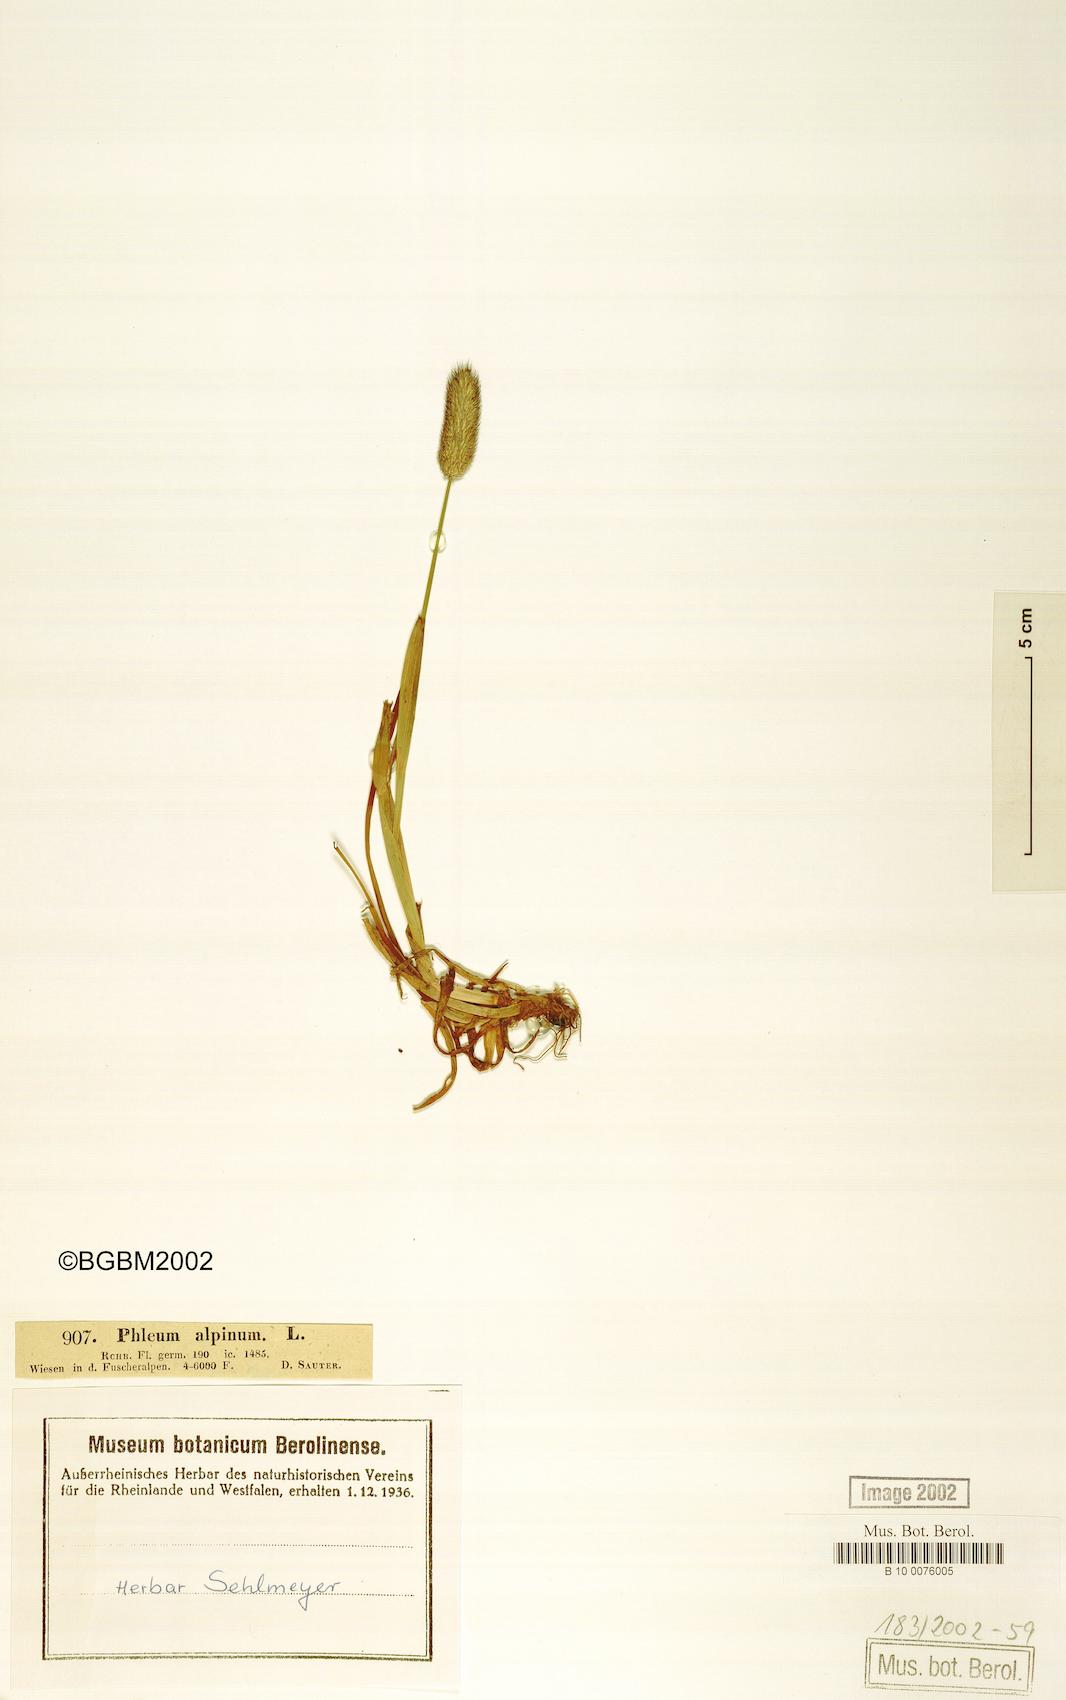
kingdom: Plantae
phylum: Tracheophyta
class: Liliopsida
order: Poales
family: Poaceae
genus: Phleum
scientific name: Phleum alpinum
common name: Alpine cat's-tail
